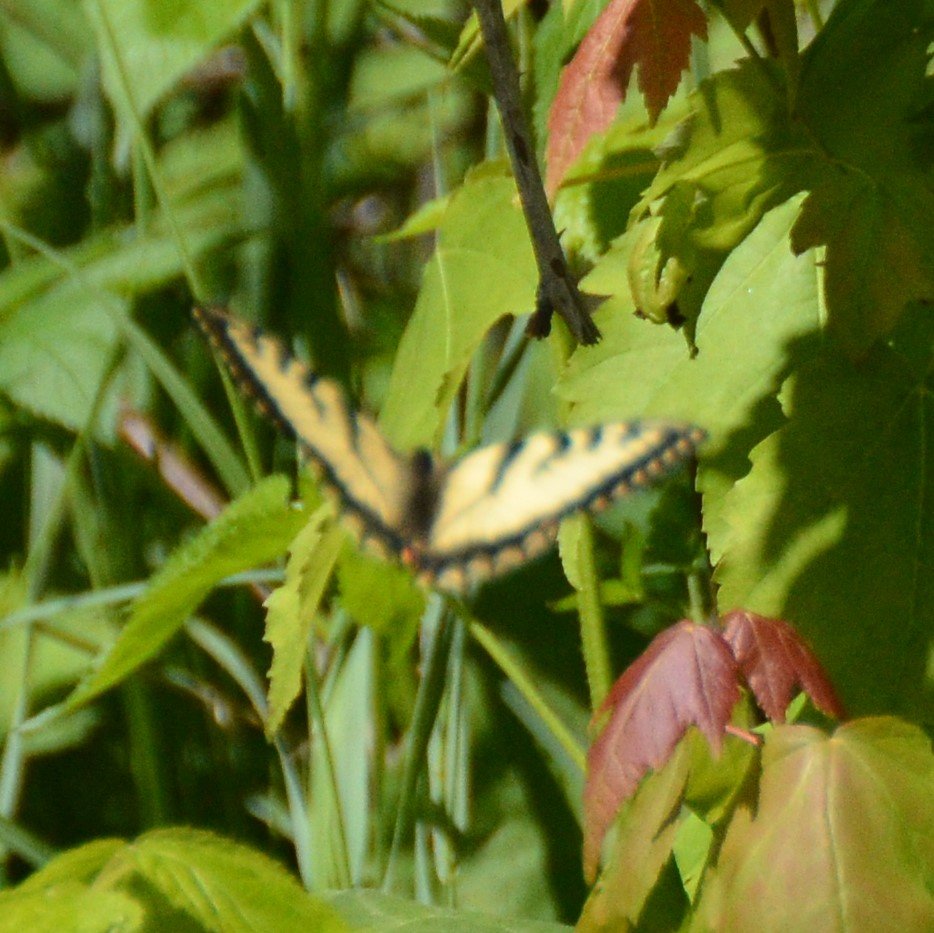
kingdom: Animalia
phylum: Arthropoda
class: Insecta
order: Lepidoptera
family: Papilionidae
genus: Pterourus
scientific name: Pterourus canadensis
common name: Canadian Tiger Swallowtail
